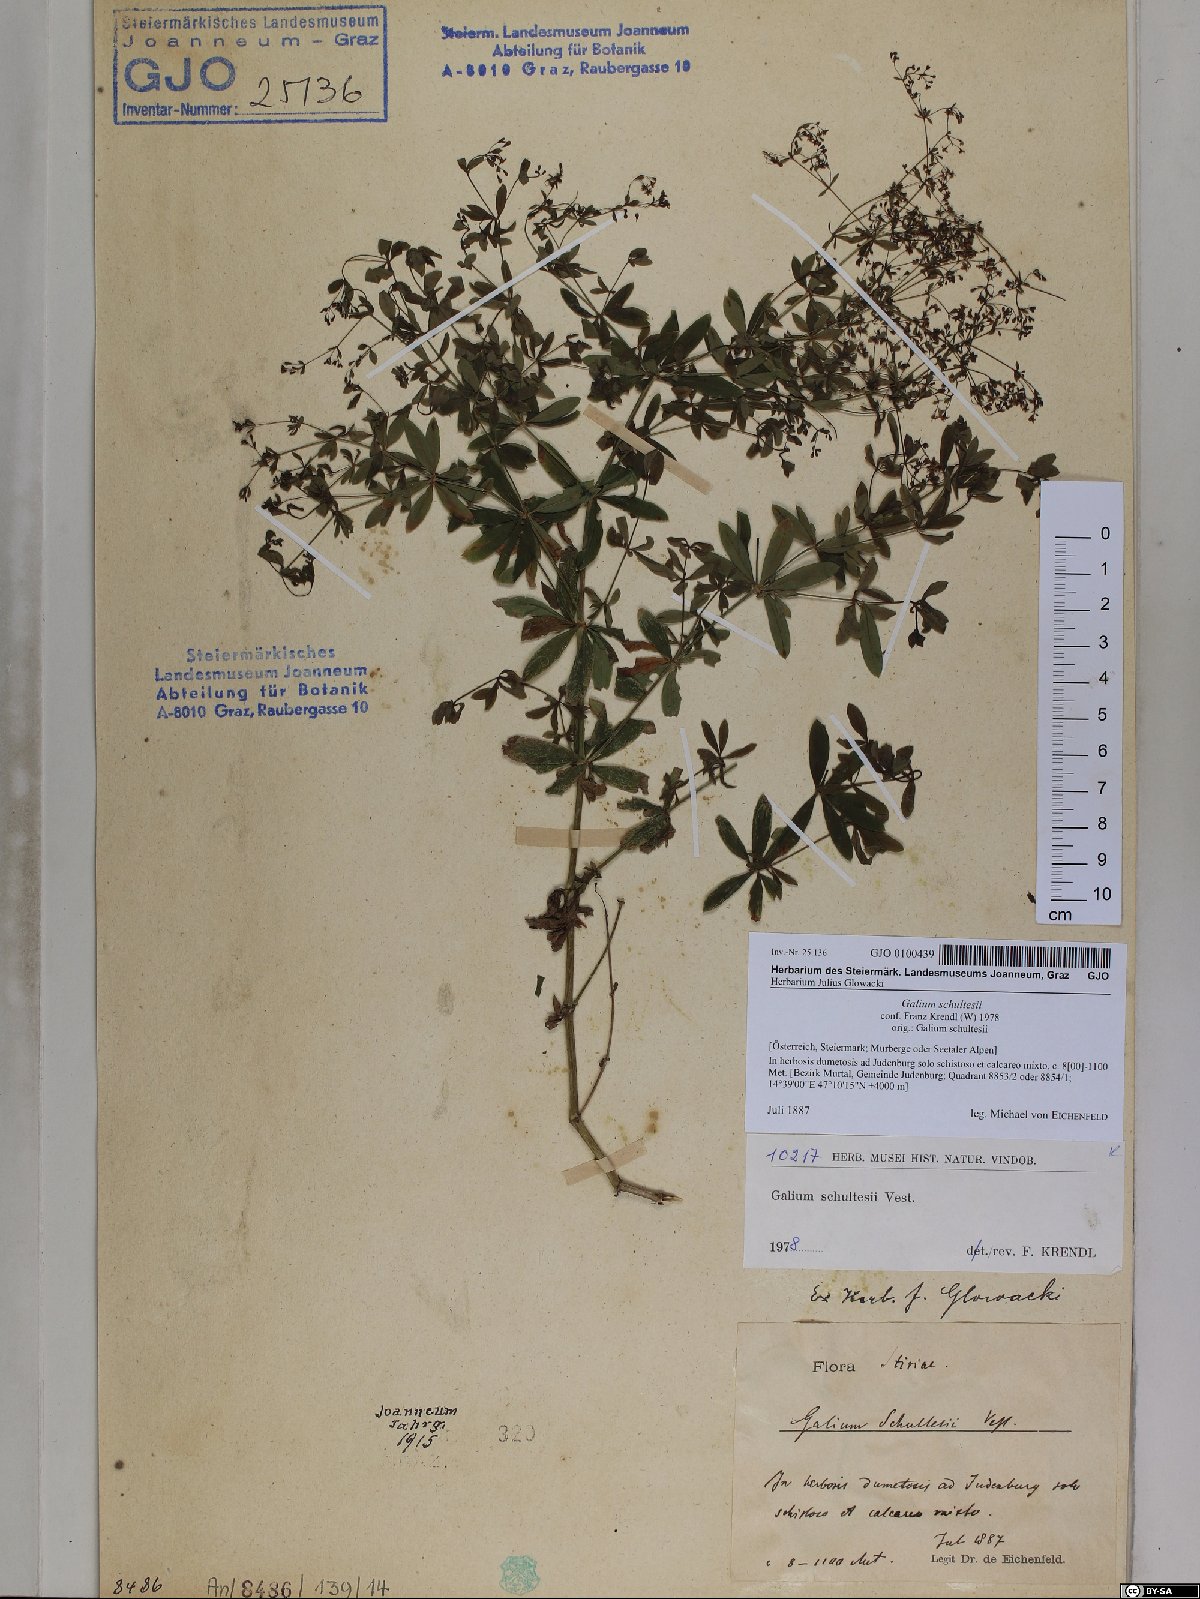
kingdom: Plantae
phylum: Tracheophyta
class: Magnoliopsida
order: Gentianales
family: Rubiaceae
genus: Galium
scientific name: Galium intermedium
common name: Bedstraw
